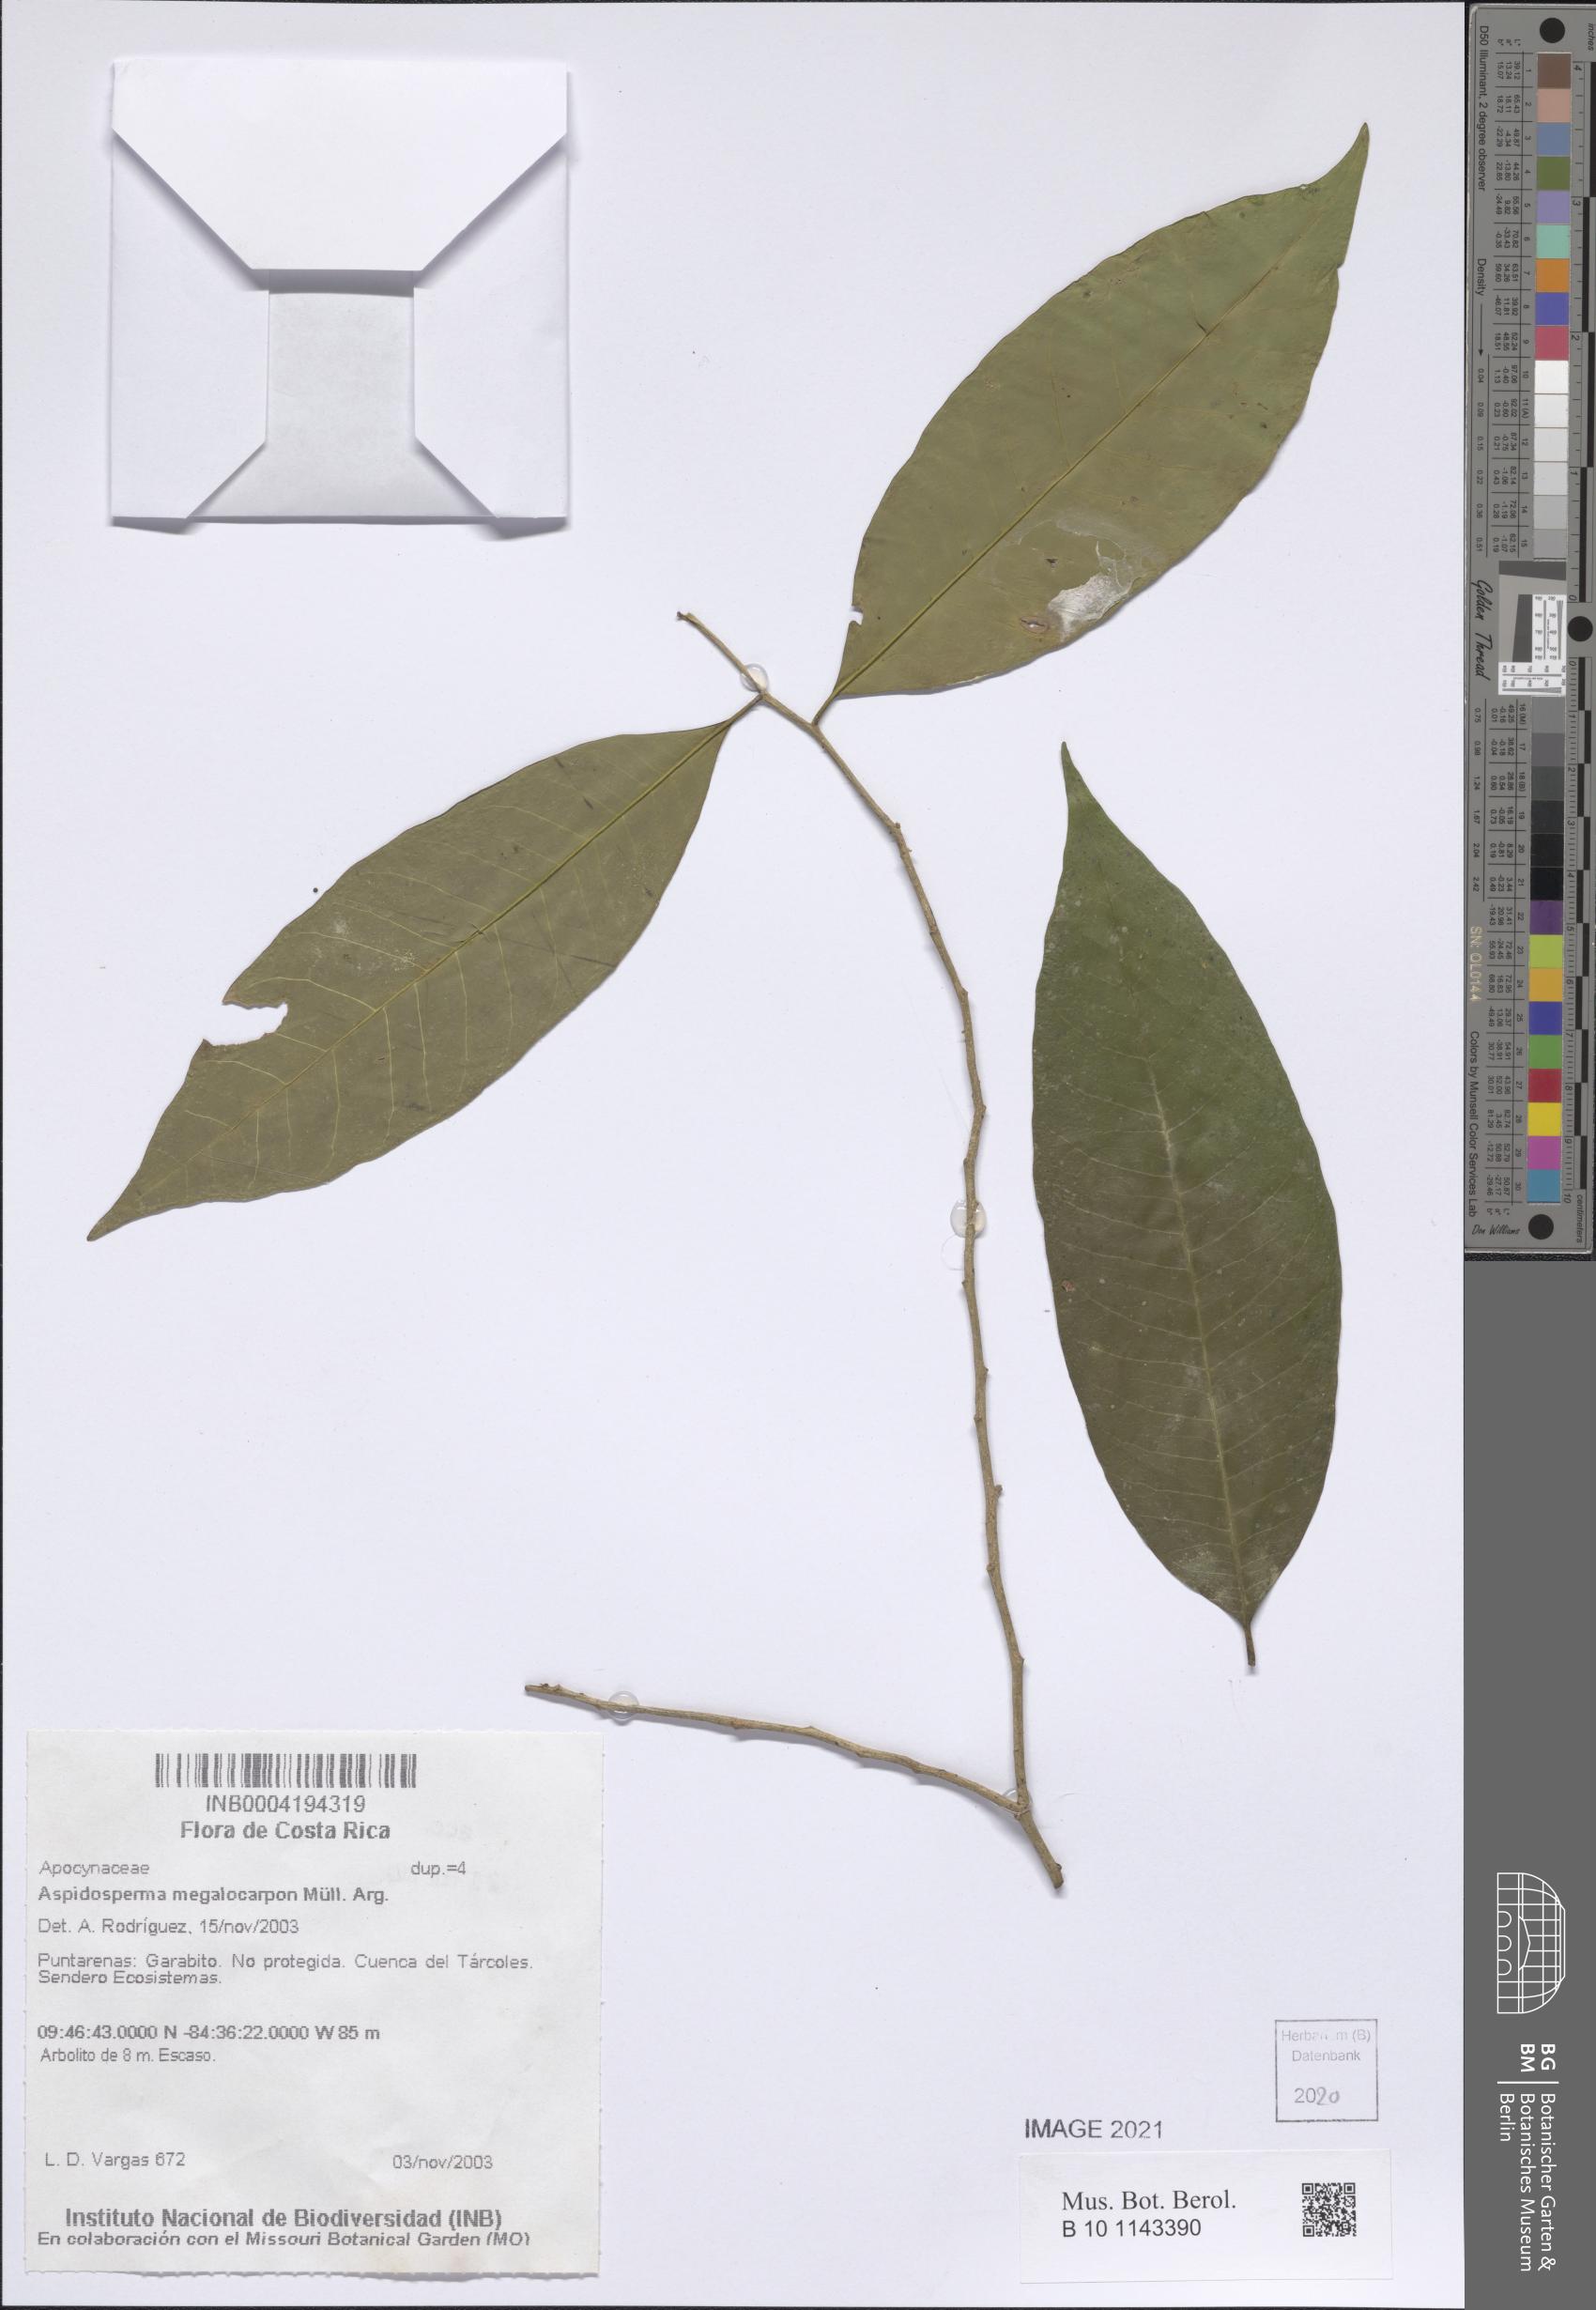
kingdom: Plantae
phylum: Tracheophyta
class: Magnoliopsida
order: Gentianales
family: Apocynaceae
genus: Aspidosperma
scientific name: Aspidosperma megalocarpon
